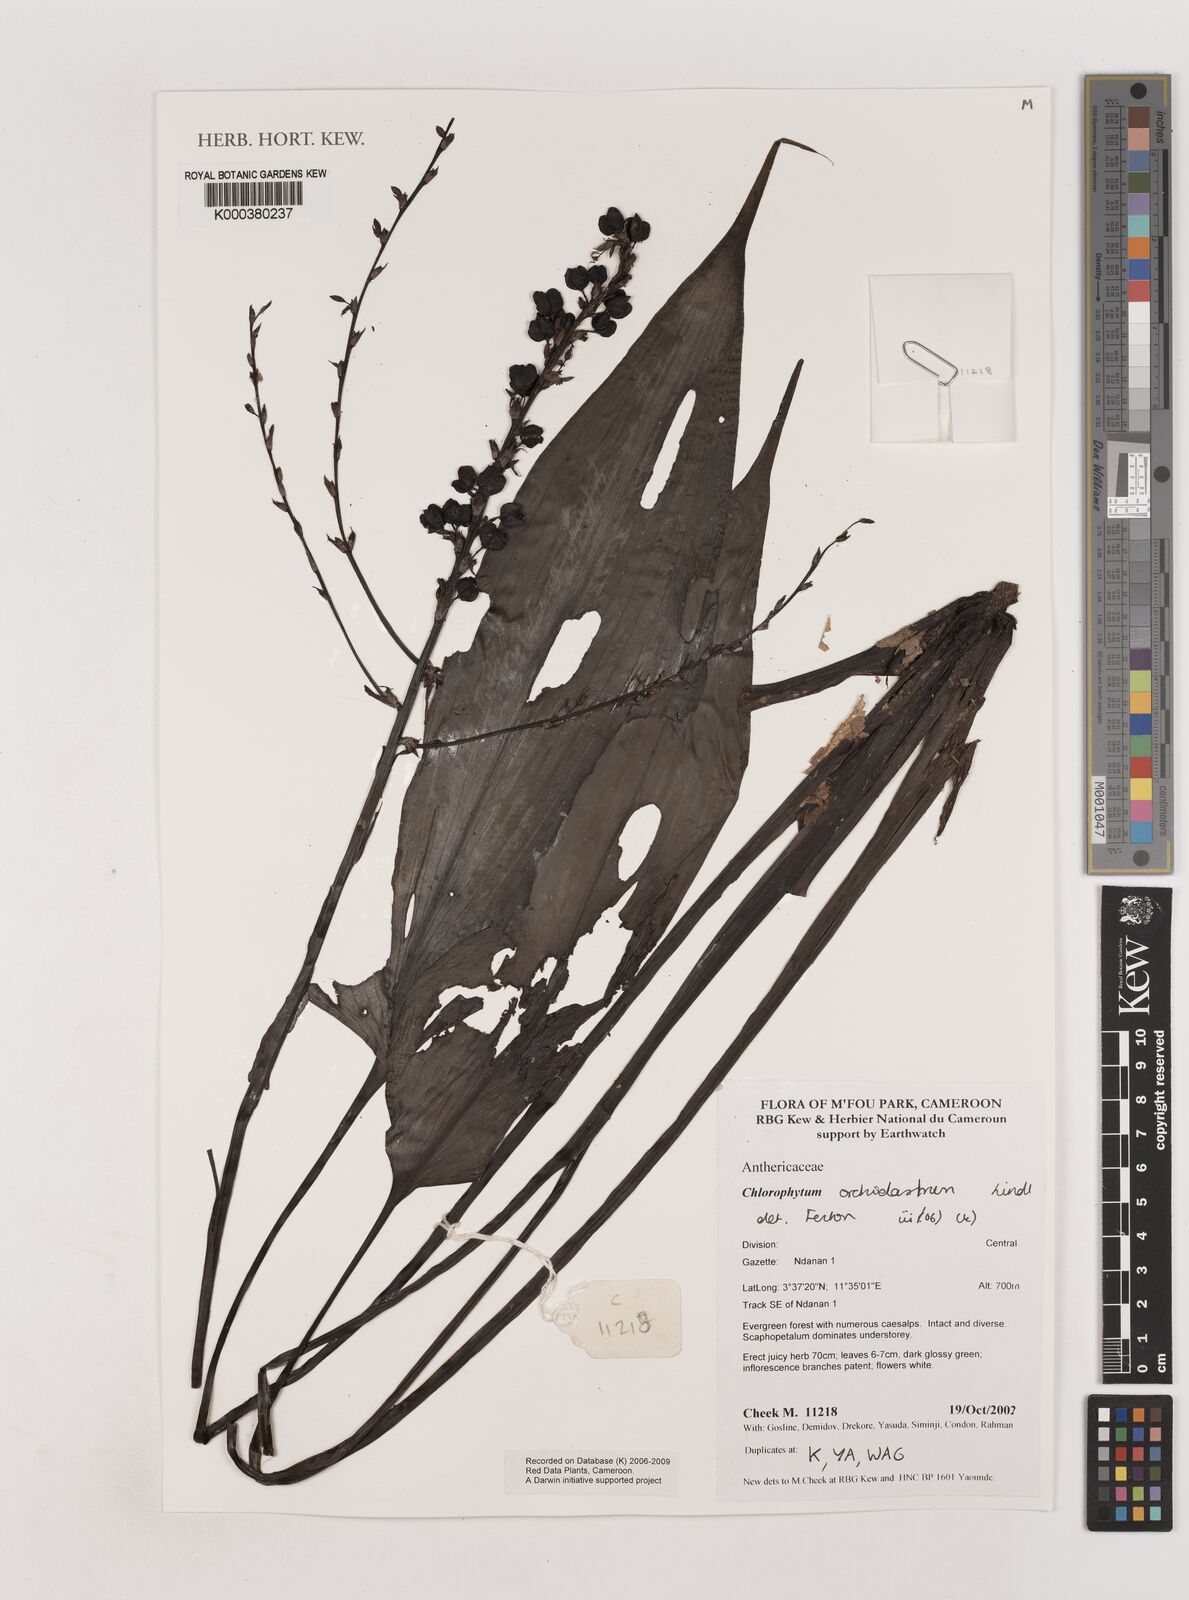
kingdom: Plantae
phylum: Tracheophyta
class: Liliopsida
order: Asparagales
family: Asparagaceae
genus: Chlorophytum
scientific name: Chlorophytum orchidastrum
